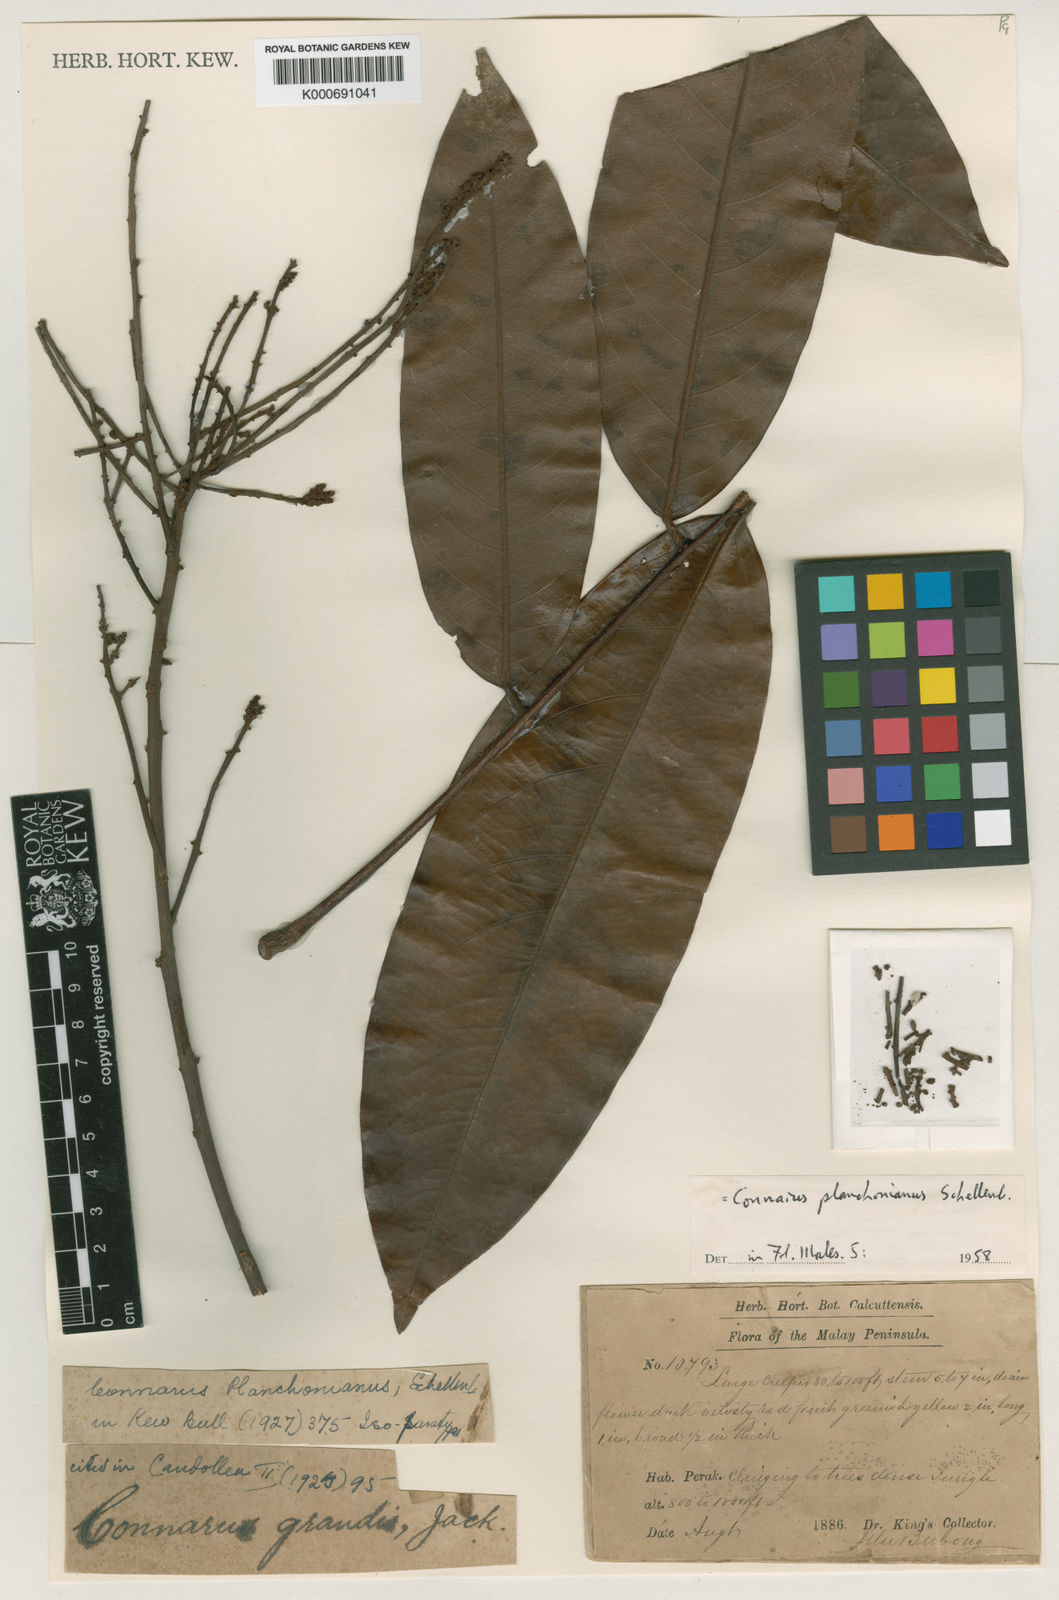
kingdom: Plantae
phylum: Tracheophyta
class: Magnoliopsida
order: Oxalidales
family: Connaraceae
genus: Connarus
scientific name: Connarus planchonianus
